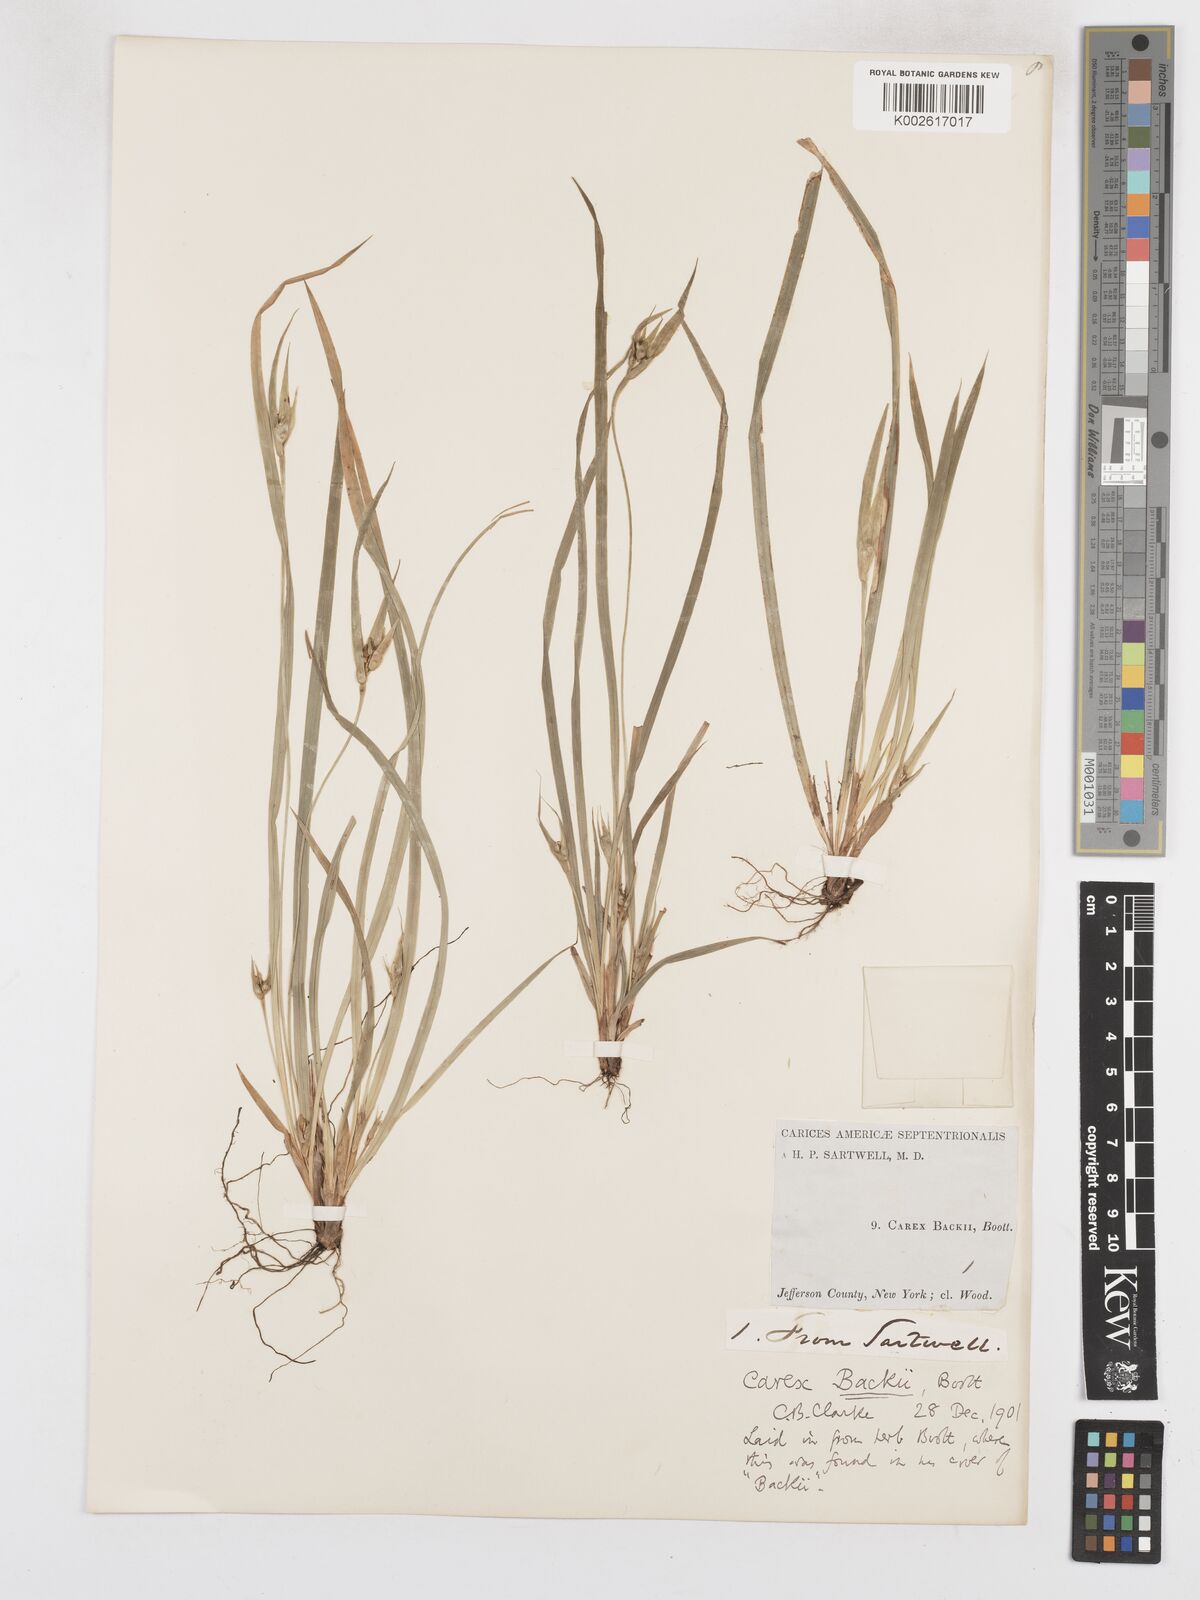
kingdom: Plantae
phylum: Tracheophyta
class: Liliopsida
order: Poales
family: Cyperaceae
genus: Carex
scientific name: Carex backii
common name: Back's sedge
